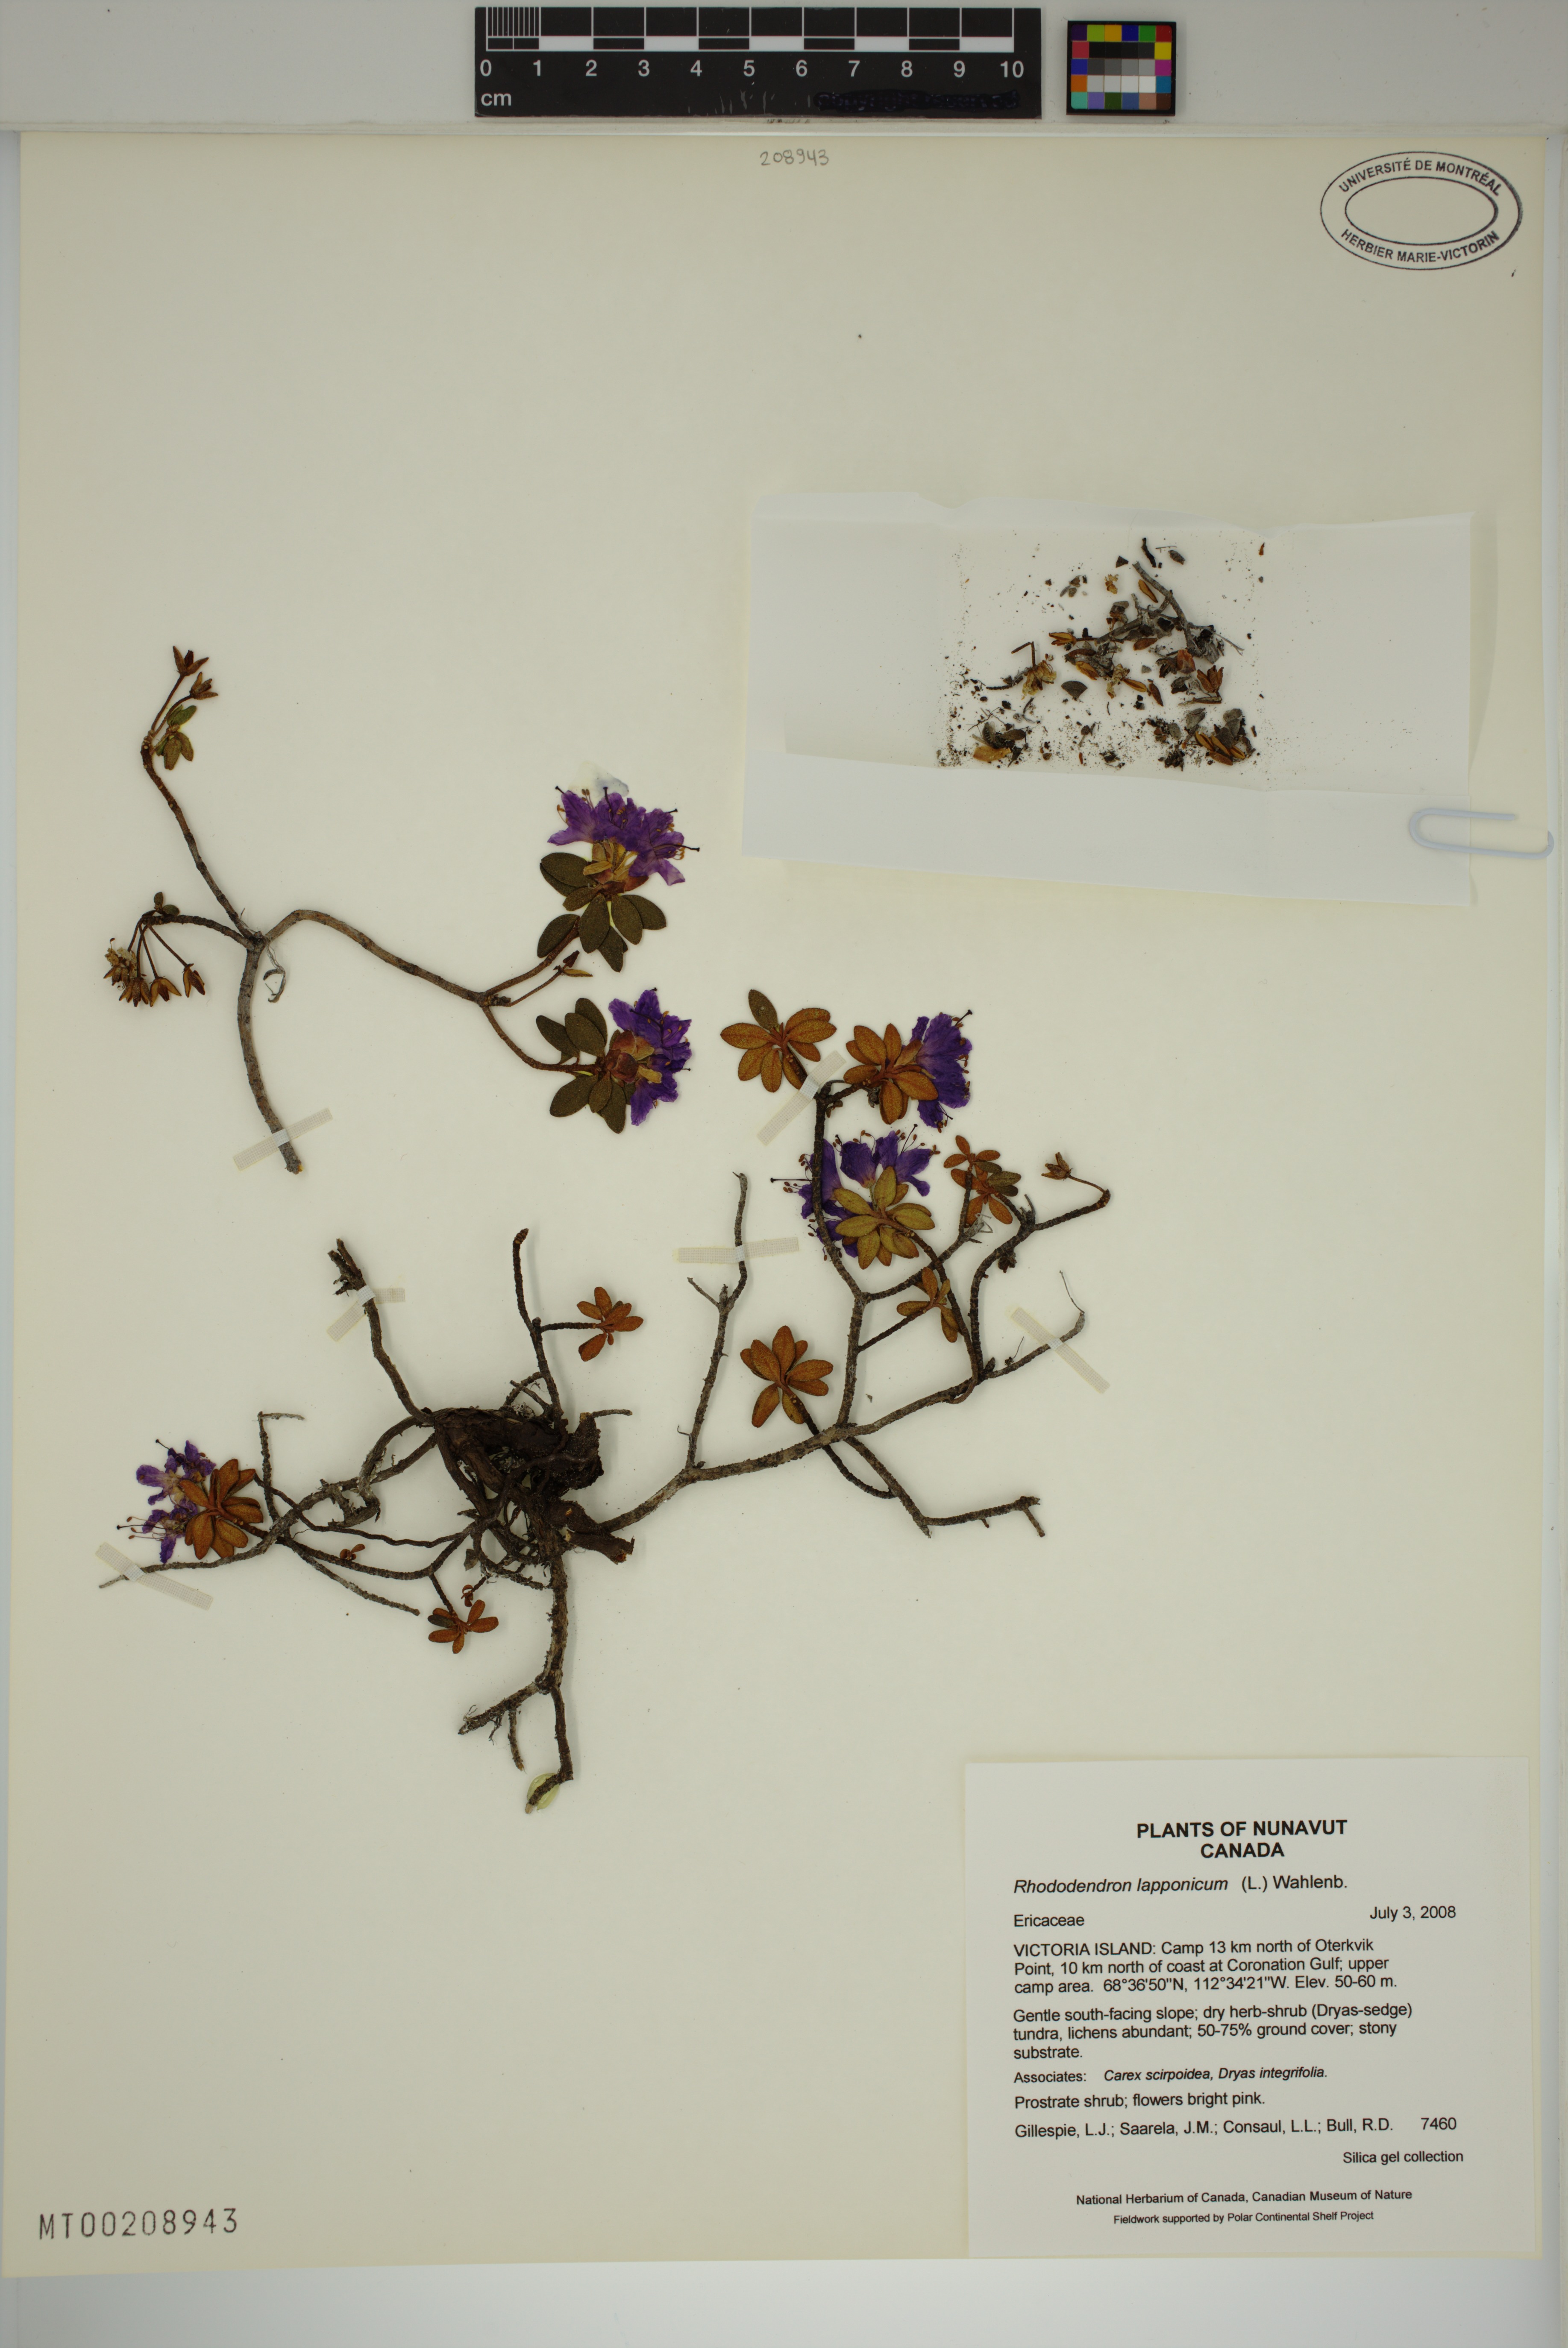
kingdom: Plantae
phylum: Tracheophyta
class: Magnoliopsida
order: Ericales
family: Ericaceae
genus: Rhododendron
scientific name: Rhododendron lapponicum
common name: Lapland rhododendron
